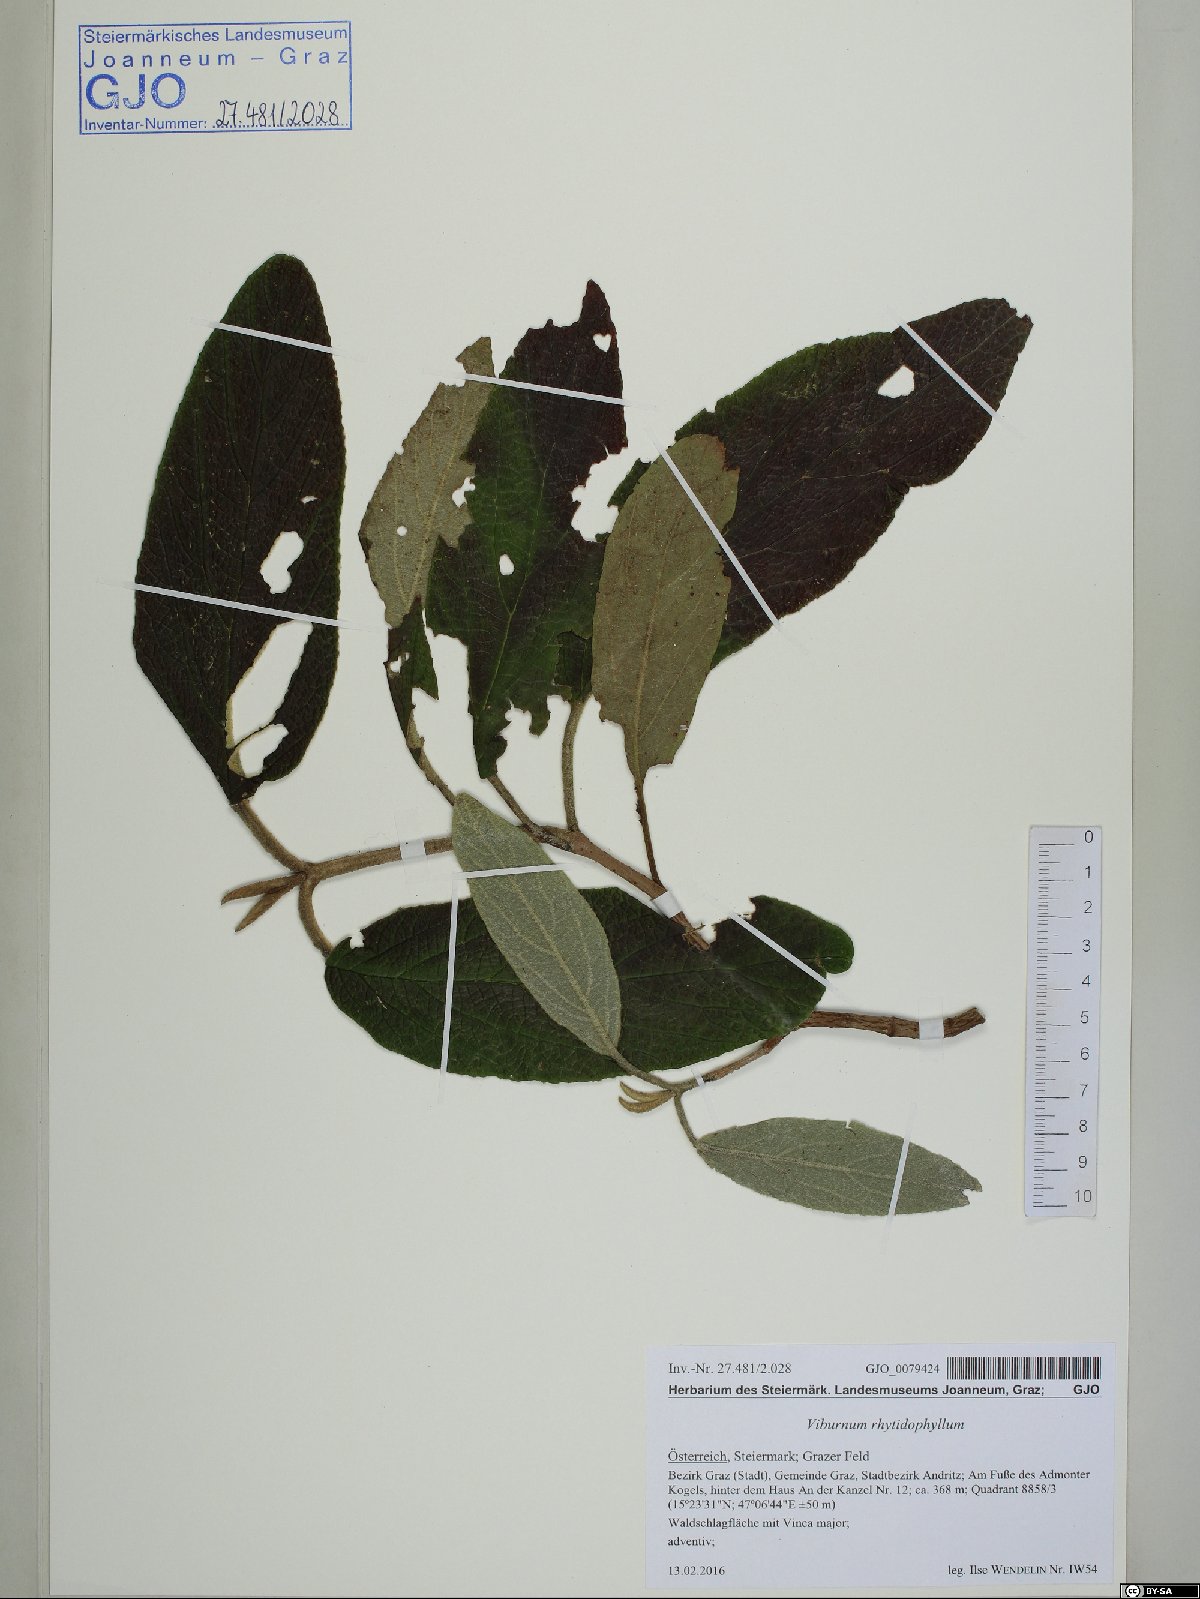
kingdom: Plantae
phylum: Tracheophyta
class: Magnoliopsida
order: Dipsacales
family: Viburnaceae
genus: Viburnum
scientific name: Viburnum rhytidophyllum
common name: Wrinkled viburnum
